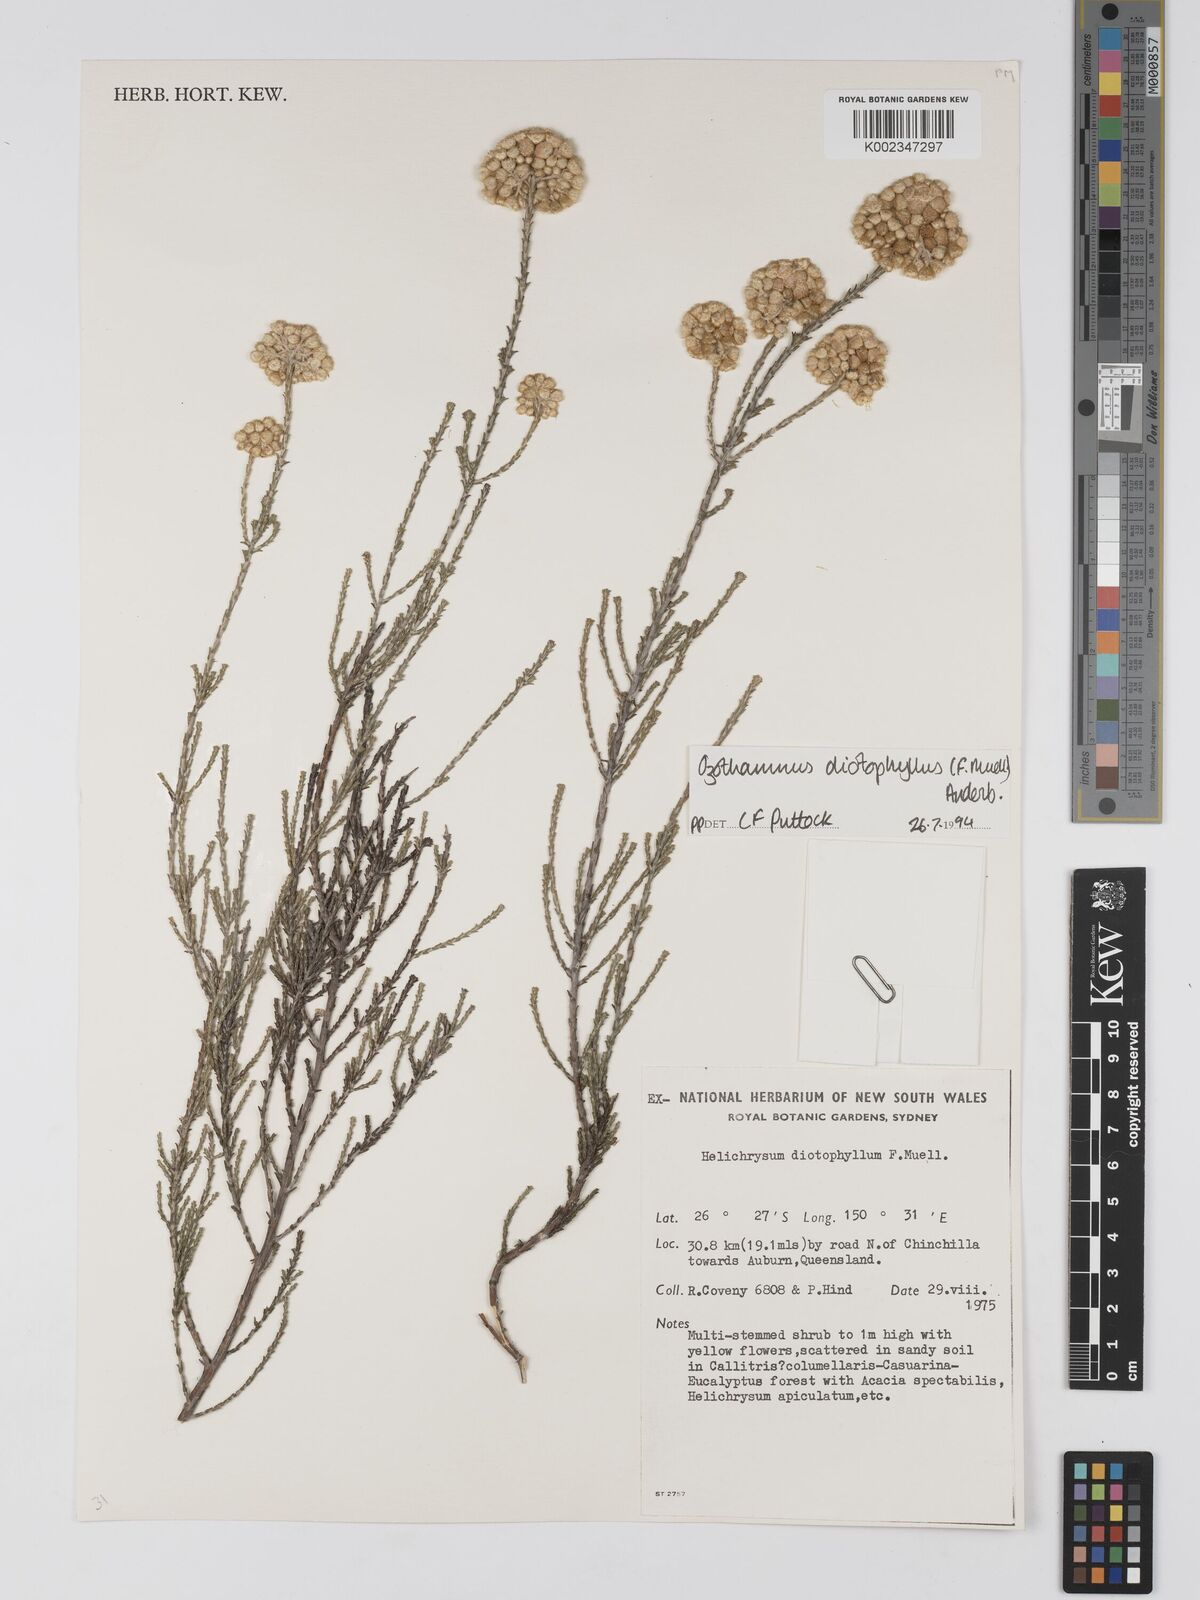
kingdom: Plantae
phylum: Tracheophyta
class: Magnoliopsida
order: Asterales
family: Asteraceae
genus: Ozothamnus
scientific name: Ozothamnus diotophyllus
